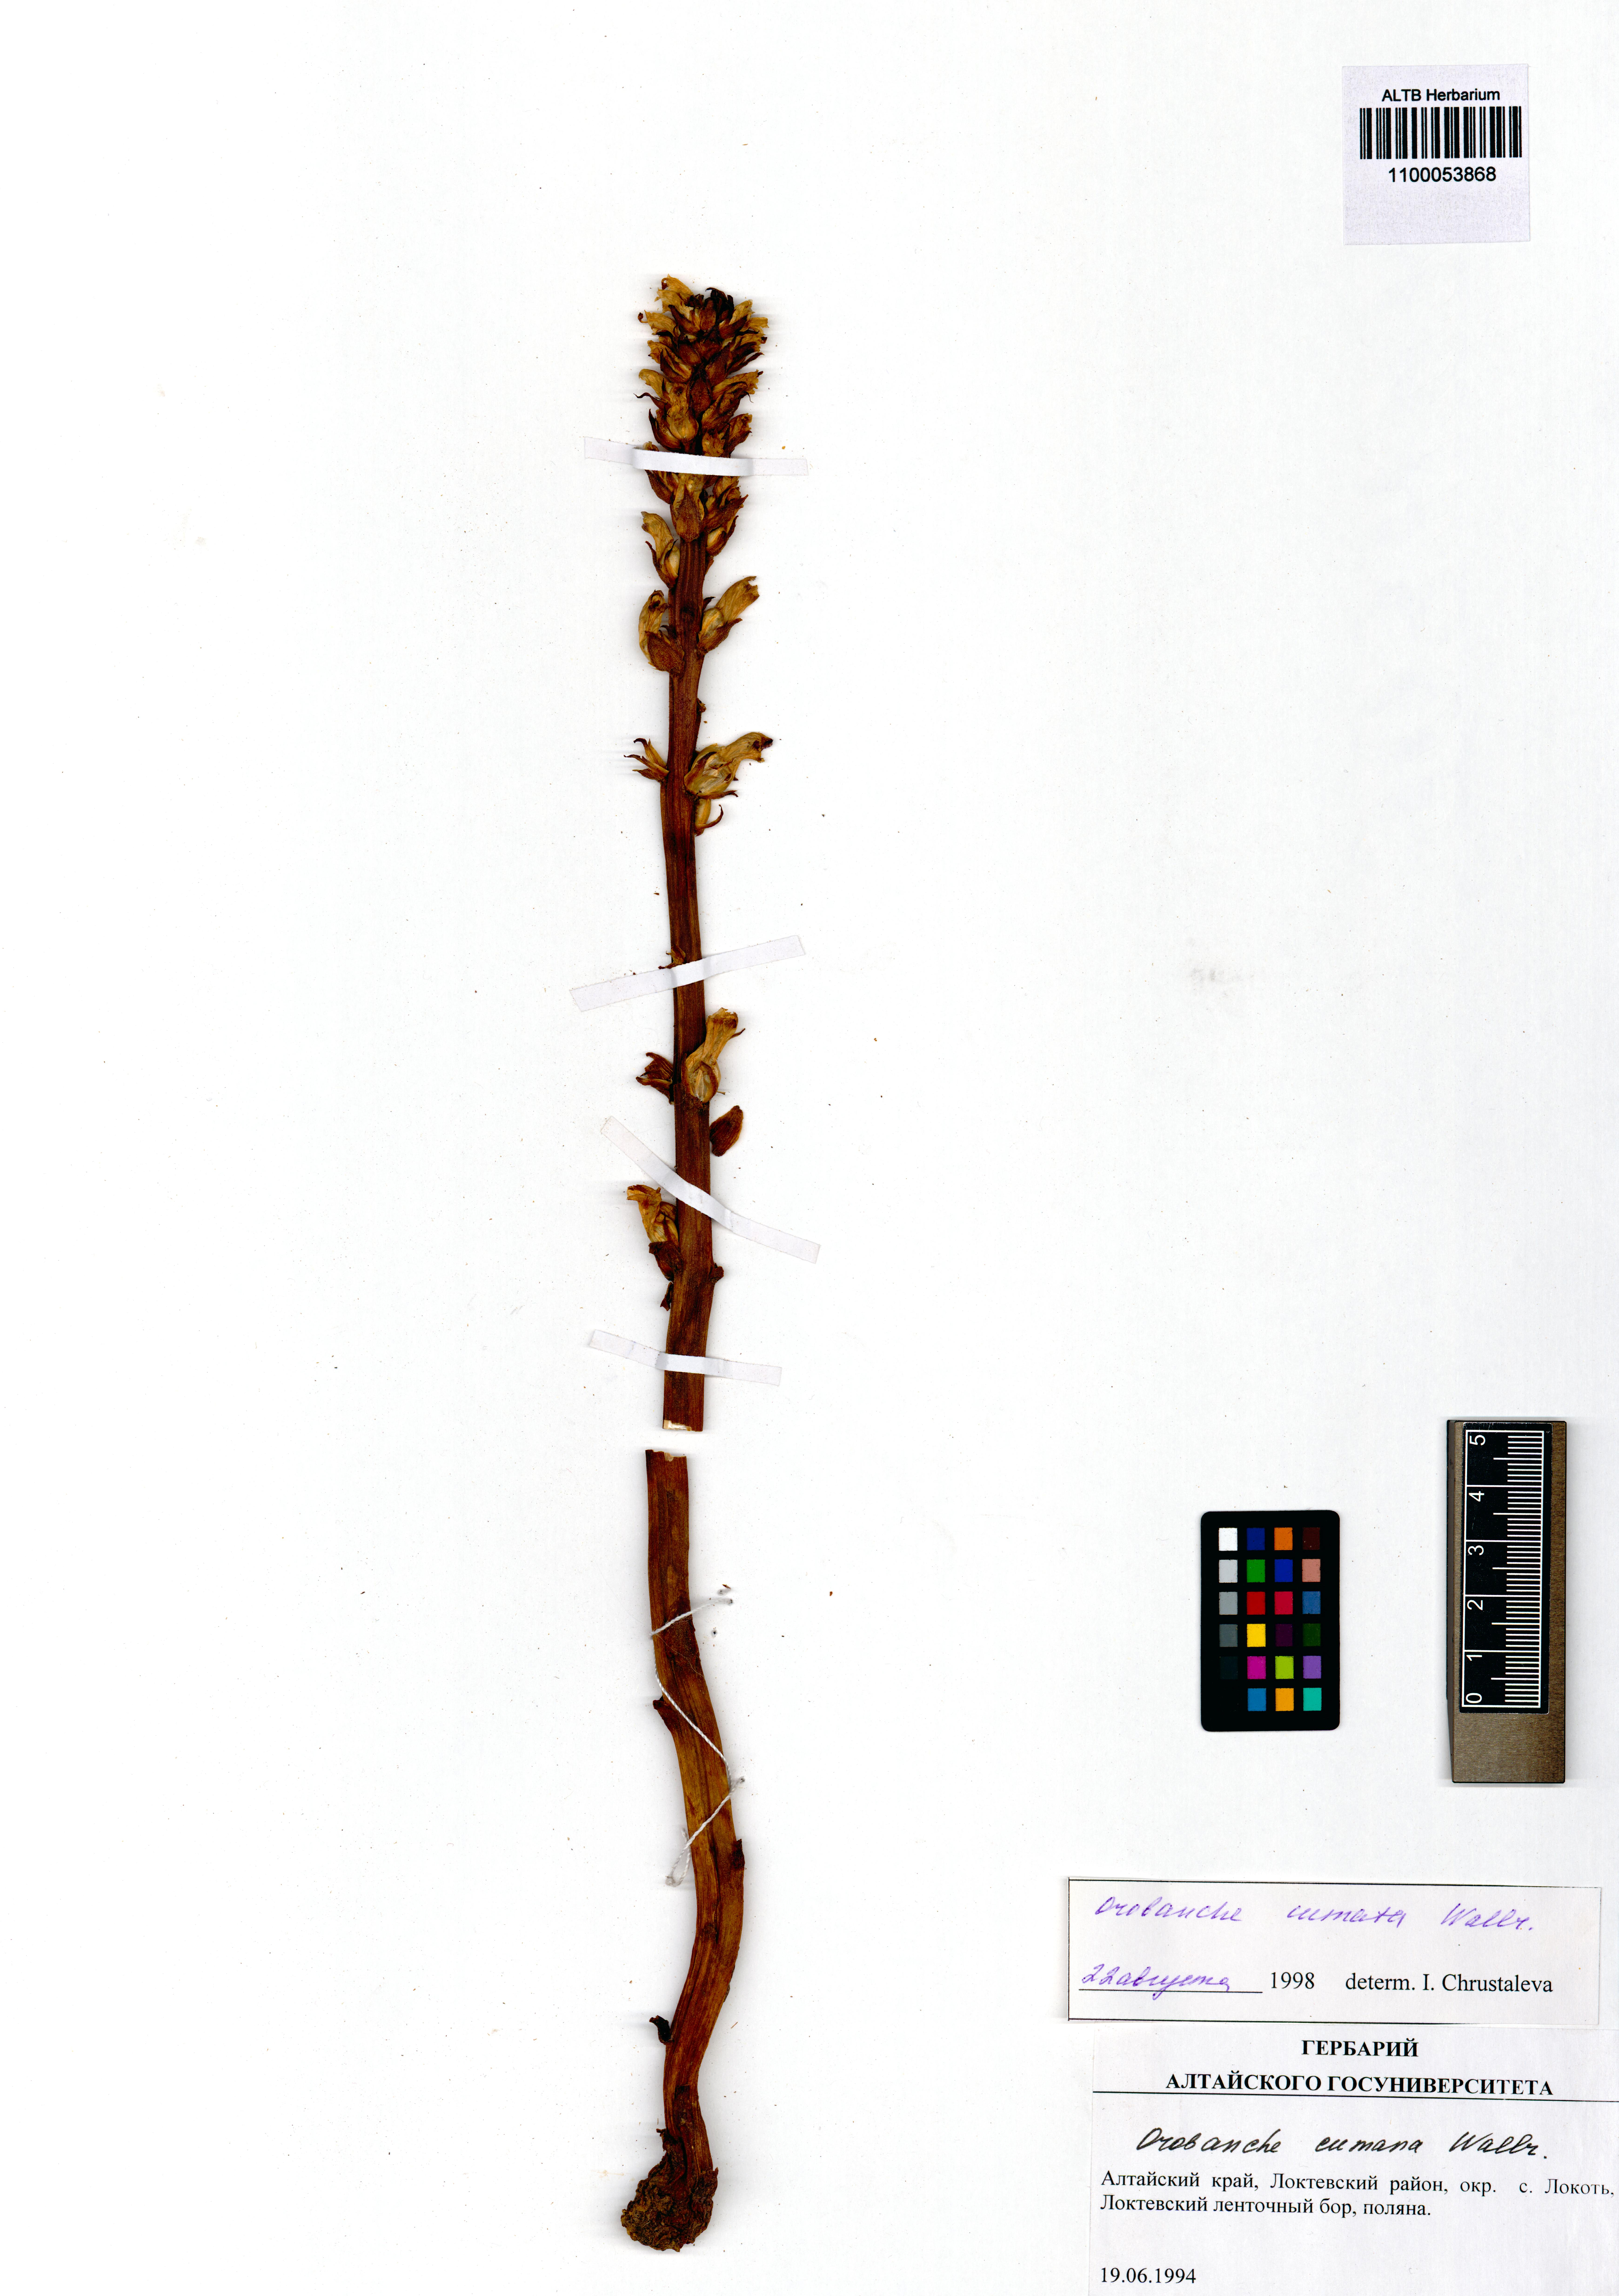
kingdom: Plantae
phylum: Tracheophyta
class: Magnoliopsida
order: Lamiales
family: Orobanchaceae
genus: Orobanche
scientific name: Orobanche cumana
